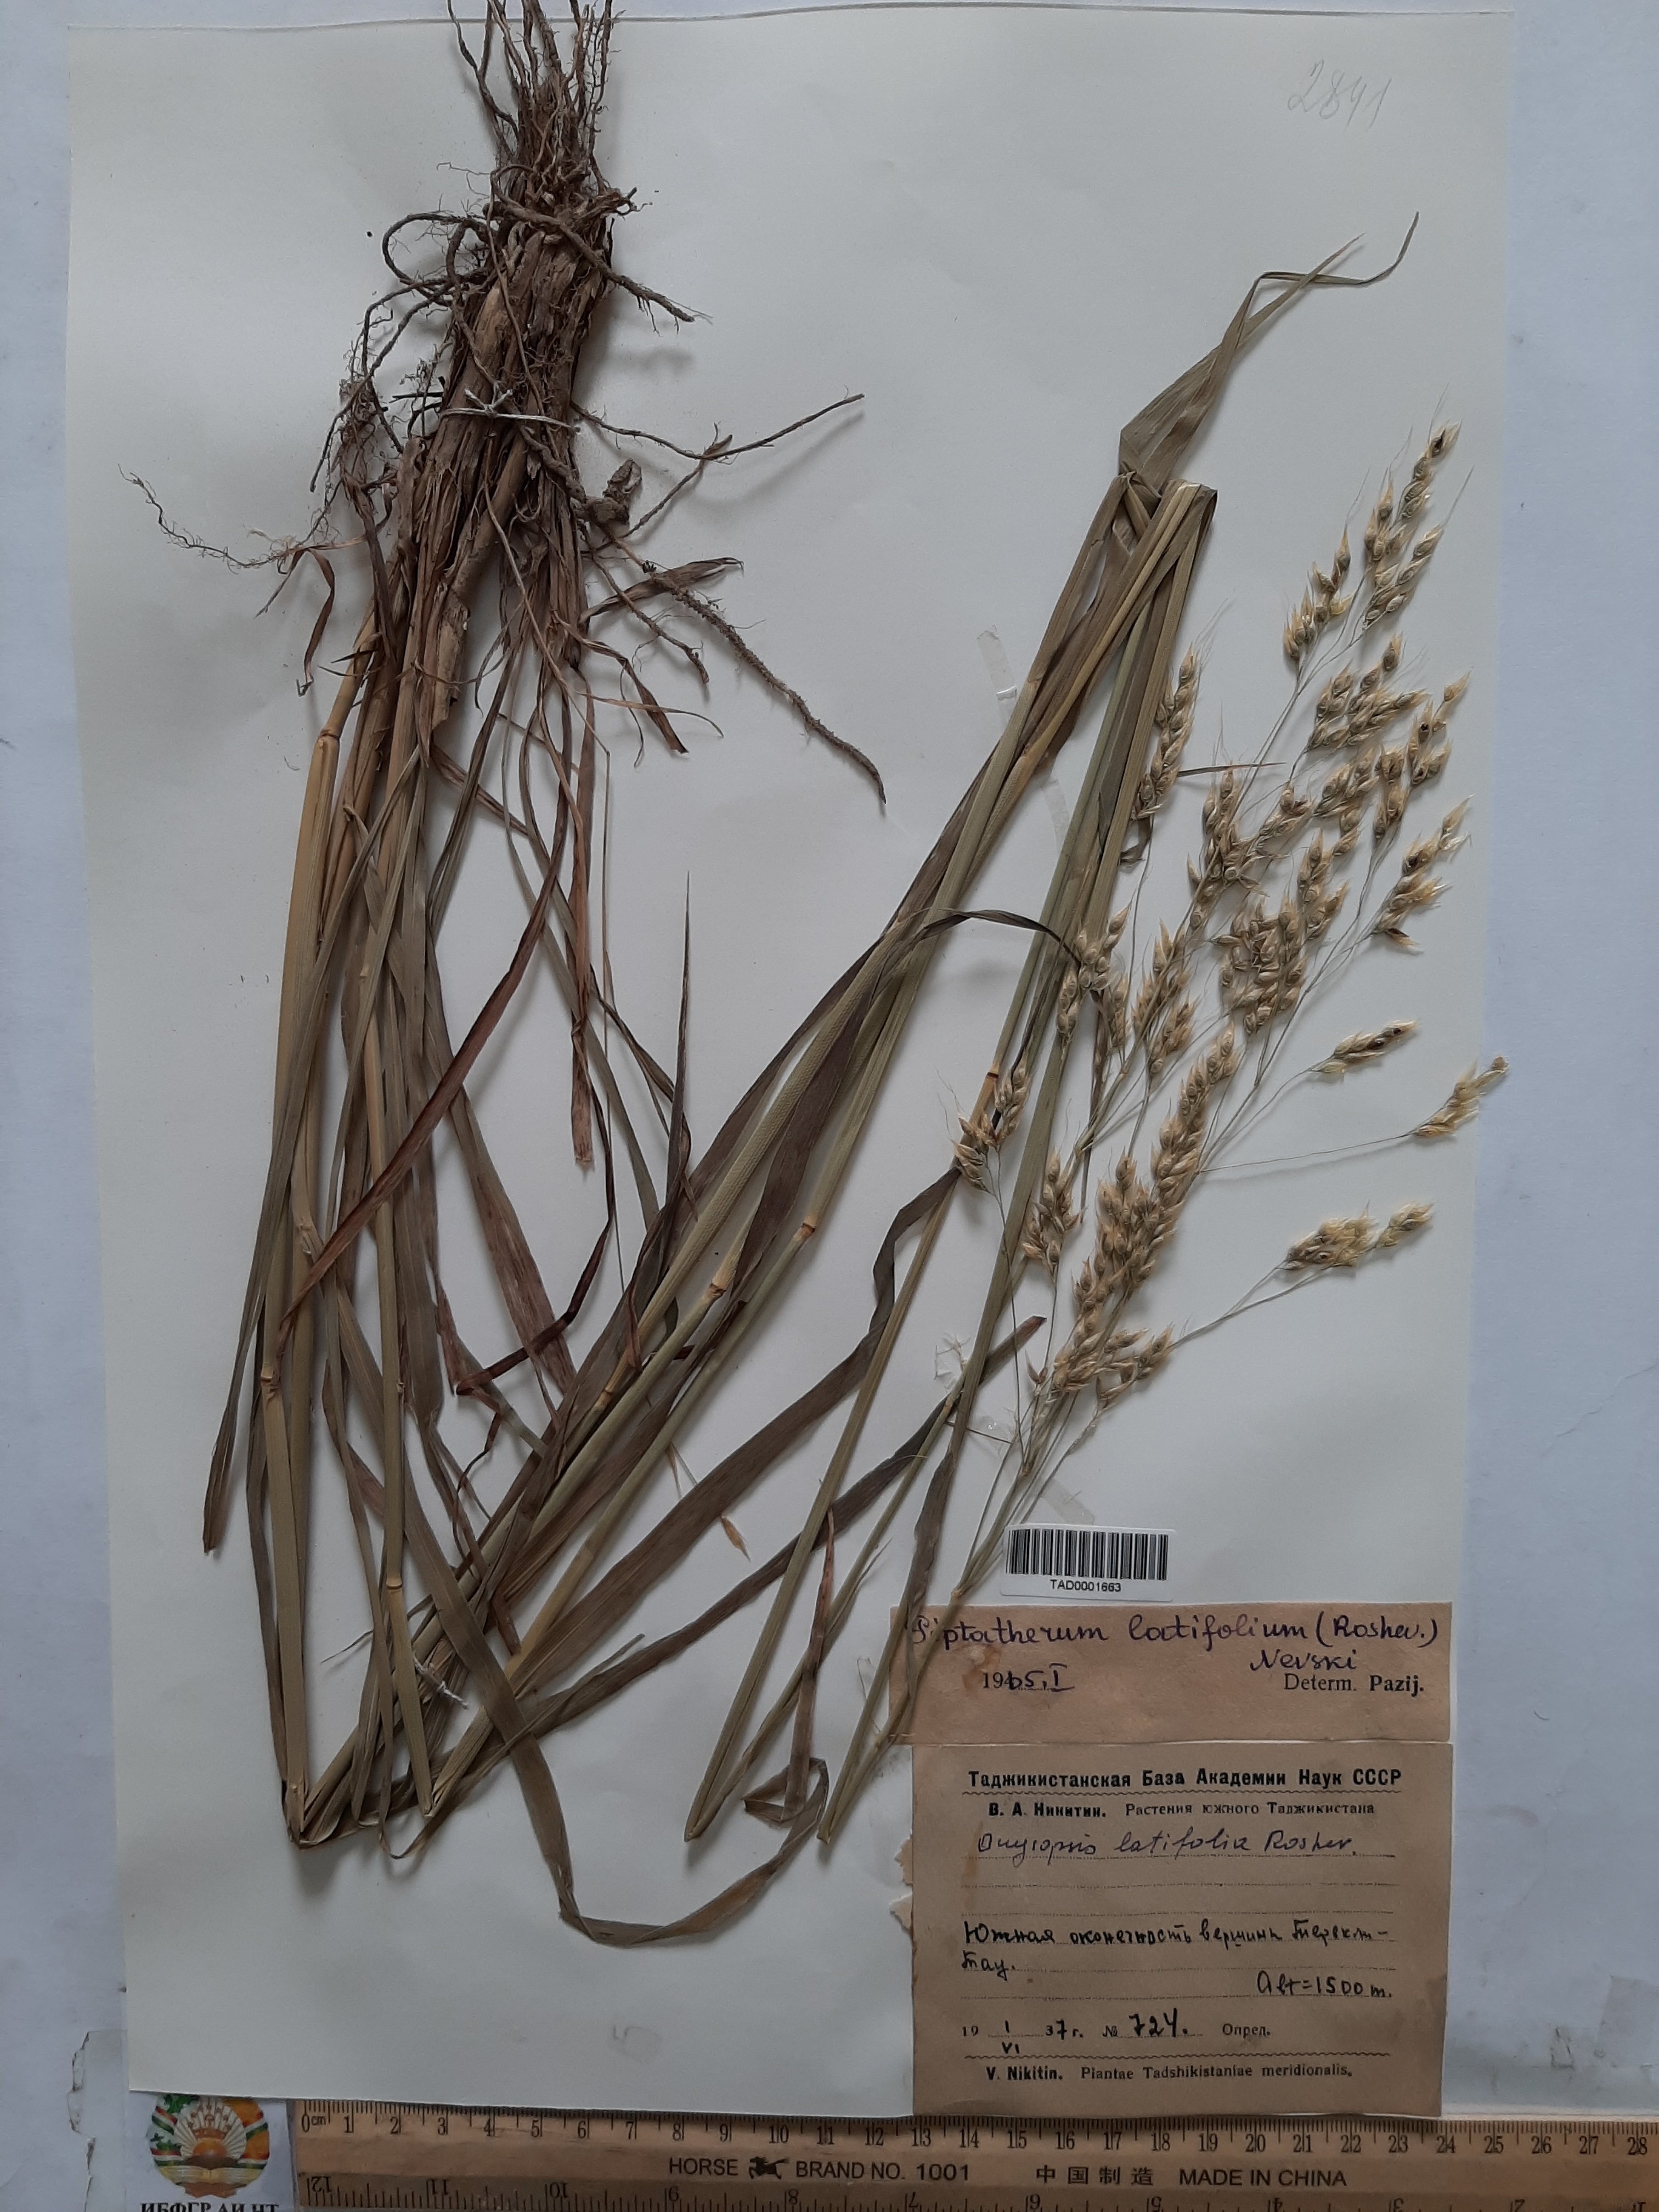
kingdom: Plantae
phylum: Tracheophyta
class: Liliopsida
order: Poales
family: Poaceae
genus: Piptatherum
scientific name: Piptatherum latifolium
